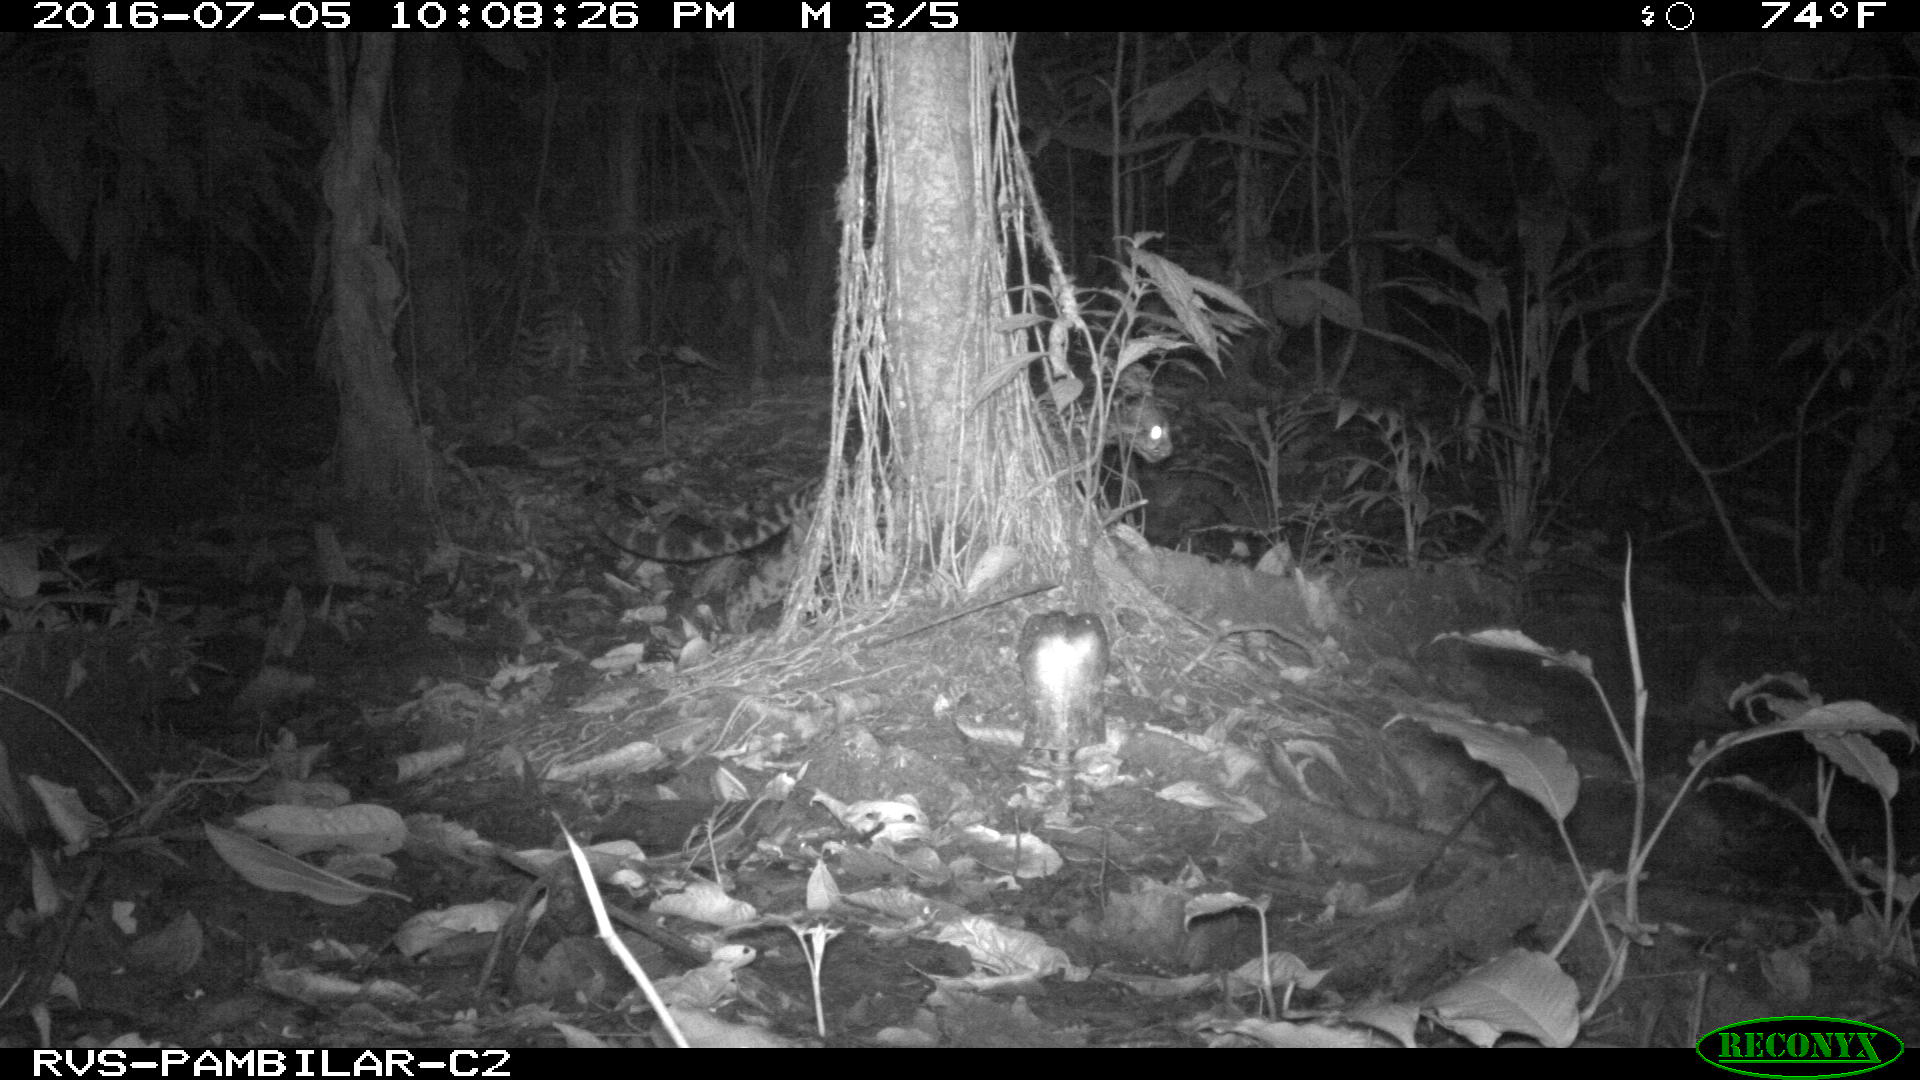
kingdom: Animalia
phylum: Chordata
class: Mammalia
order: Carnivora
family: Felidae
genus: Leopardus
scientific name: Leopardus pardalis
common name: Ocelot
